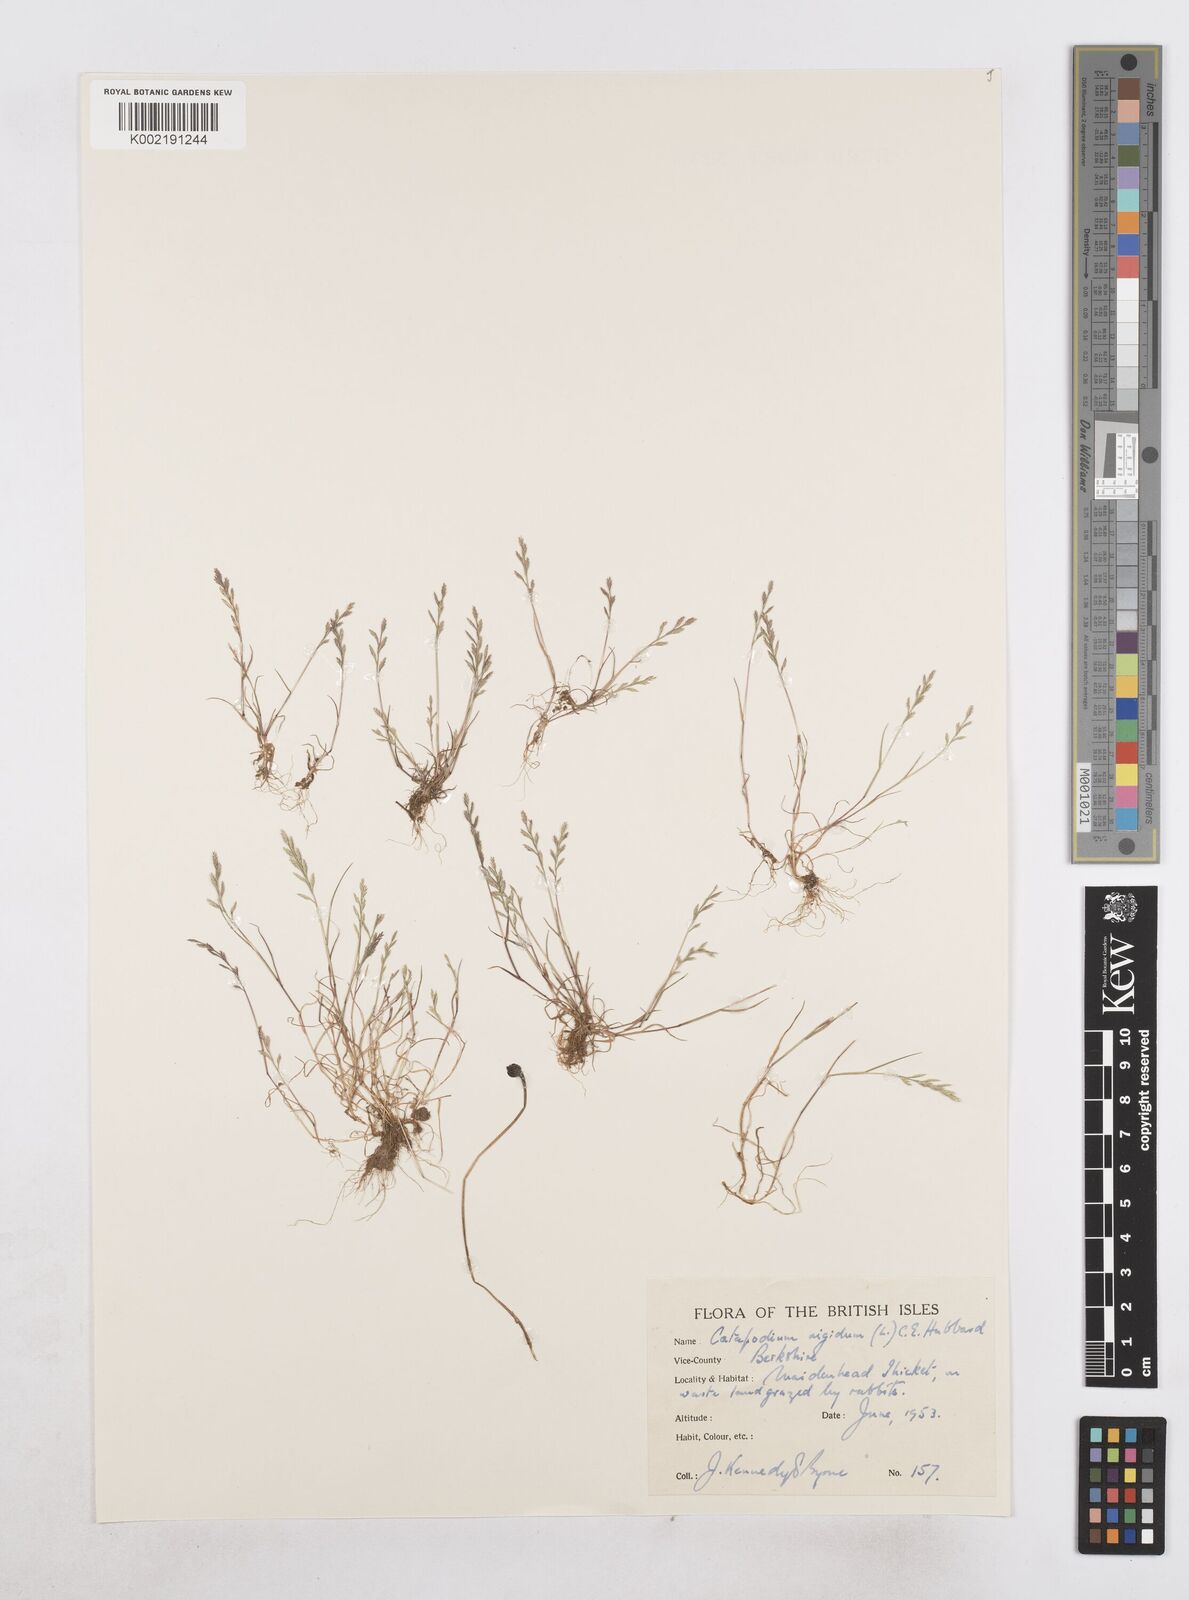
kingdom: Plantae
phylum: Tracheophyta
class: Liliopsida
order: Poales
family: Poaceae
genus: Catapodium
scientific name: Catapodium rigidum
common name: Fern-grass
